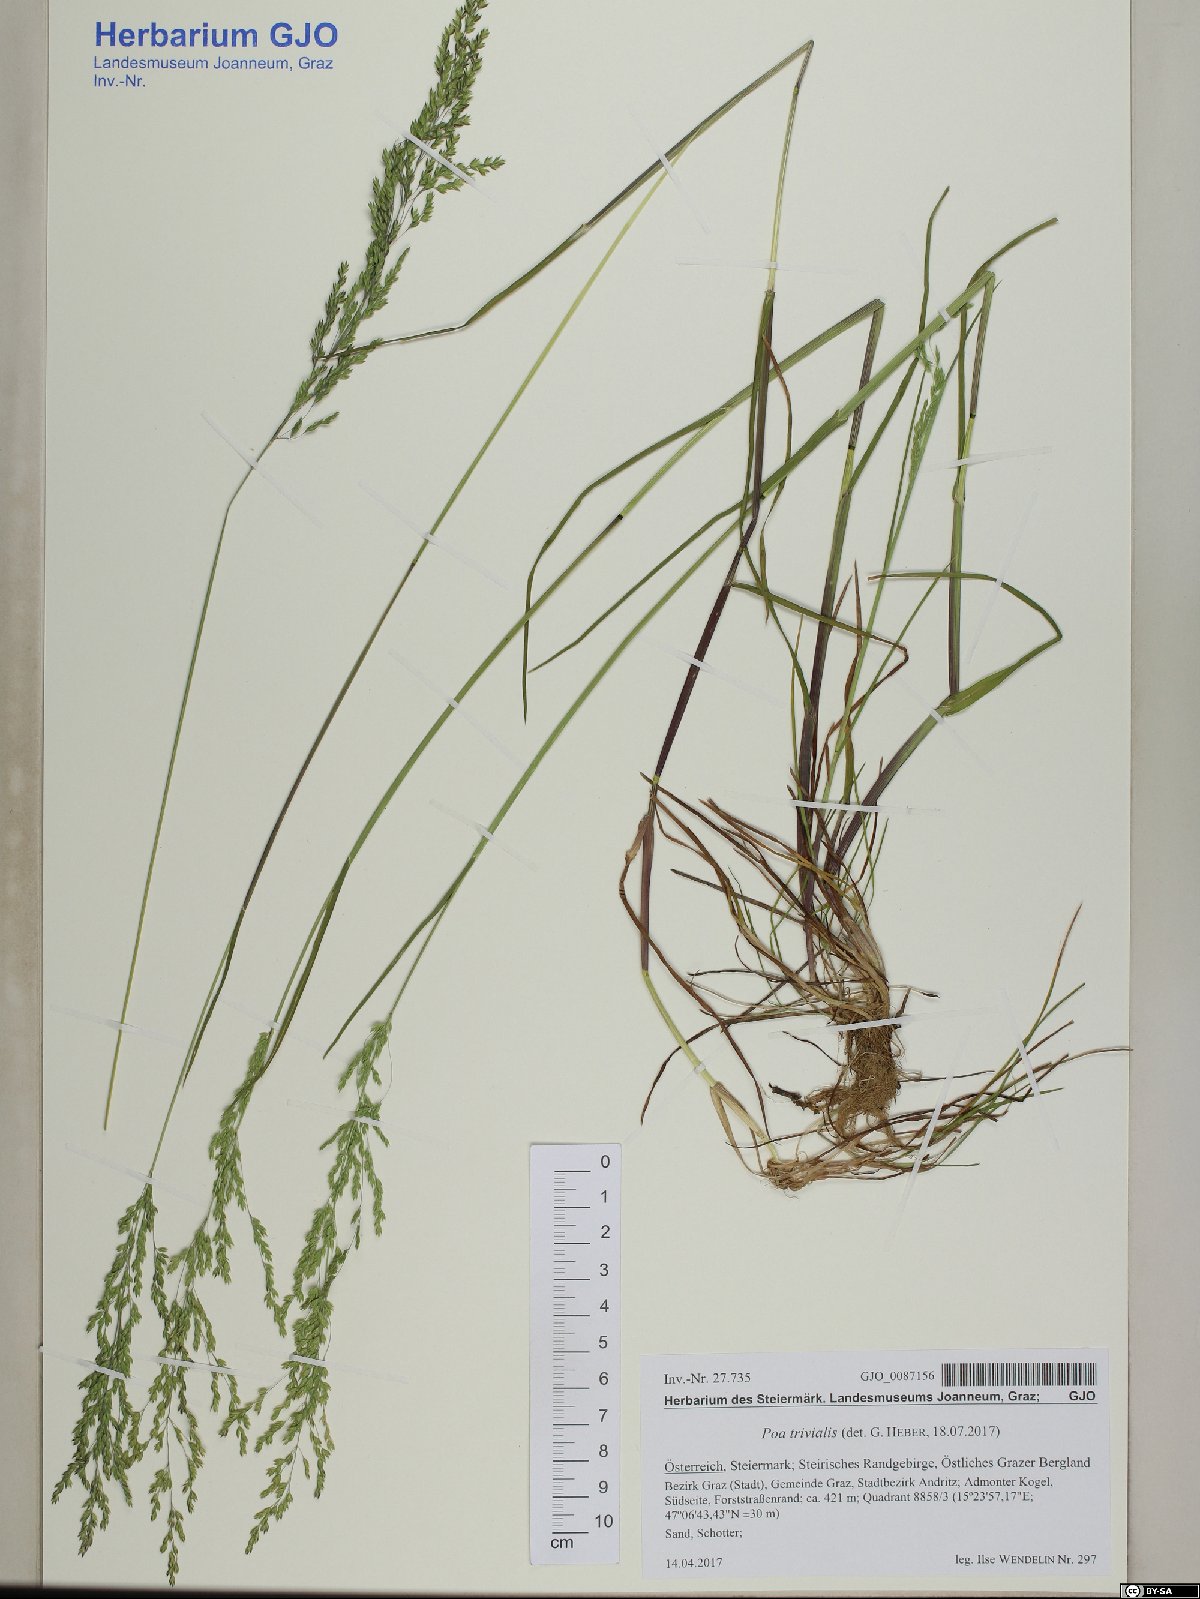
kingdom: Plantae
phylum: Tracheophyta
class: Liliopsida
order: Poales
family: Poaceae
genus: Poa
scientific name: Poa trivialis
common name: Rough bluegrass
